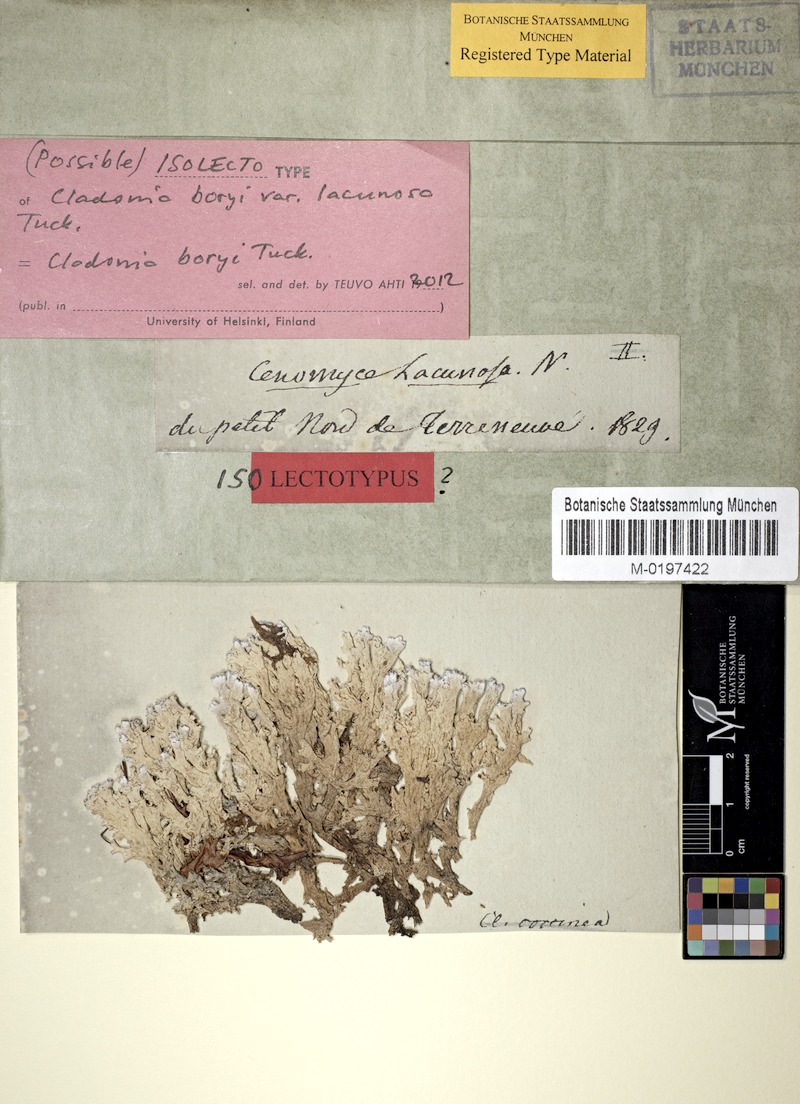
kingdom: Fungi
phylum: Ascomycota
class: Lecanoromycetes
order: Lecanorales
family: Cladoniaceae
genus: Cladonia
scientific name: Cladonia boryi
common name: Fishnet cladonia
